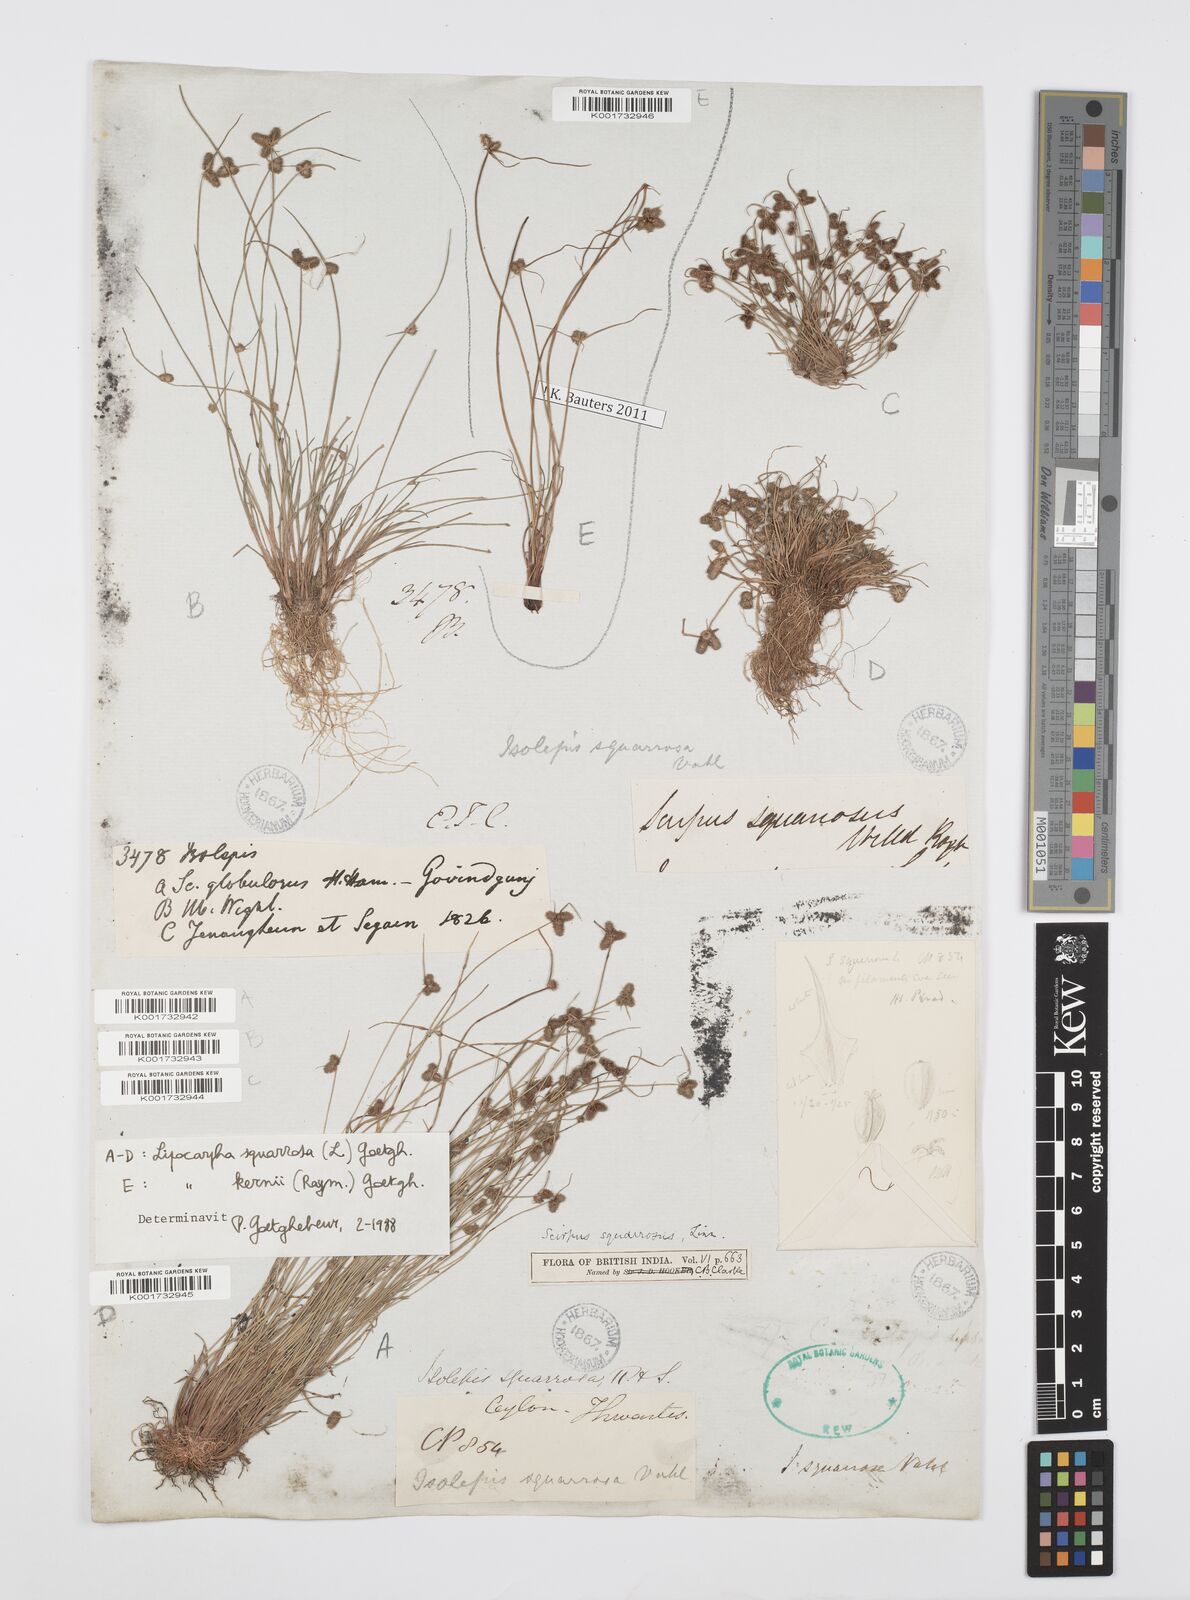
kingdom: Plantae
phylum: Tracheophyta
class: Liliopsida
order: Poales
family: Cyperaceae
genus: Cyperus
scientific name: Cyperus squarrosus
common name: Awned cyperus
